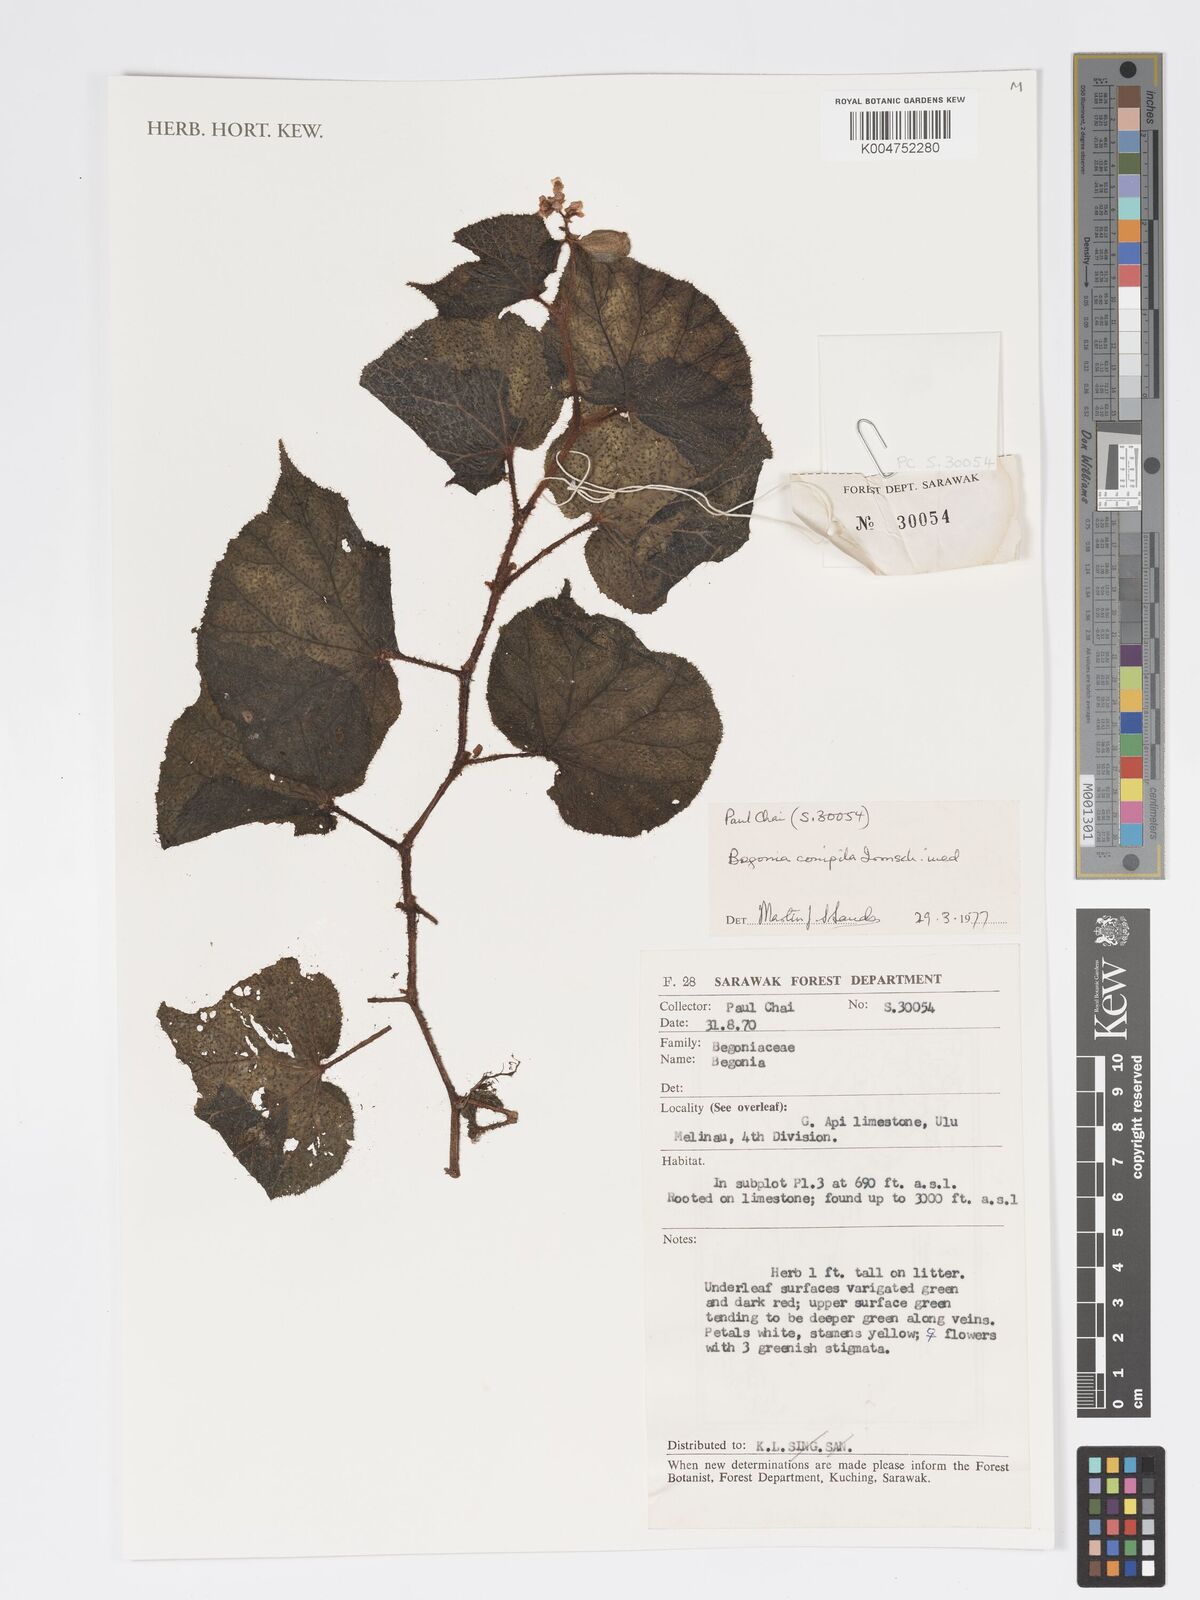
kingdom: Plantae
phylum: Tracheophyta
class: Magnoliopsida
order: Cucurbitales
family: Begoniaceae
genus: Begonia
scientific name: Begonia conipila
